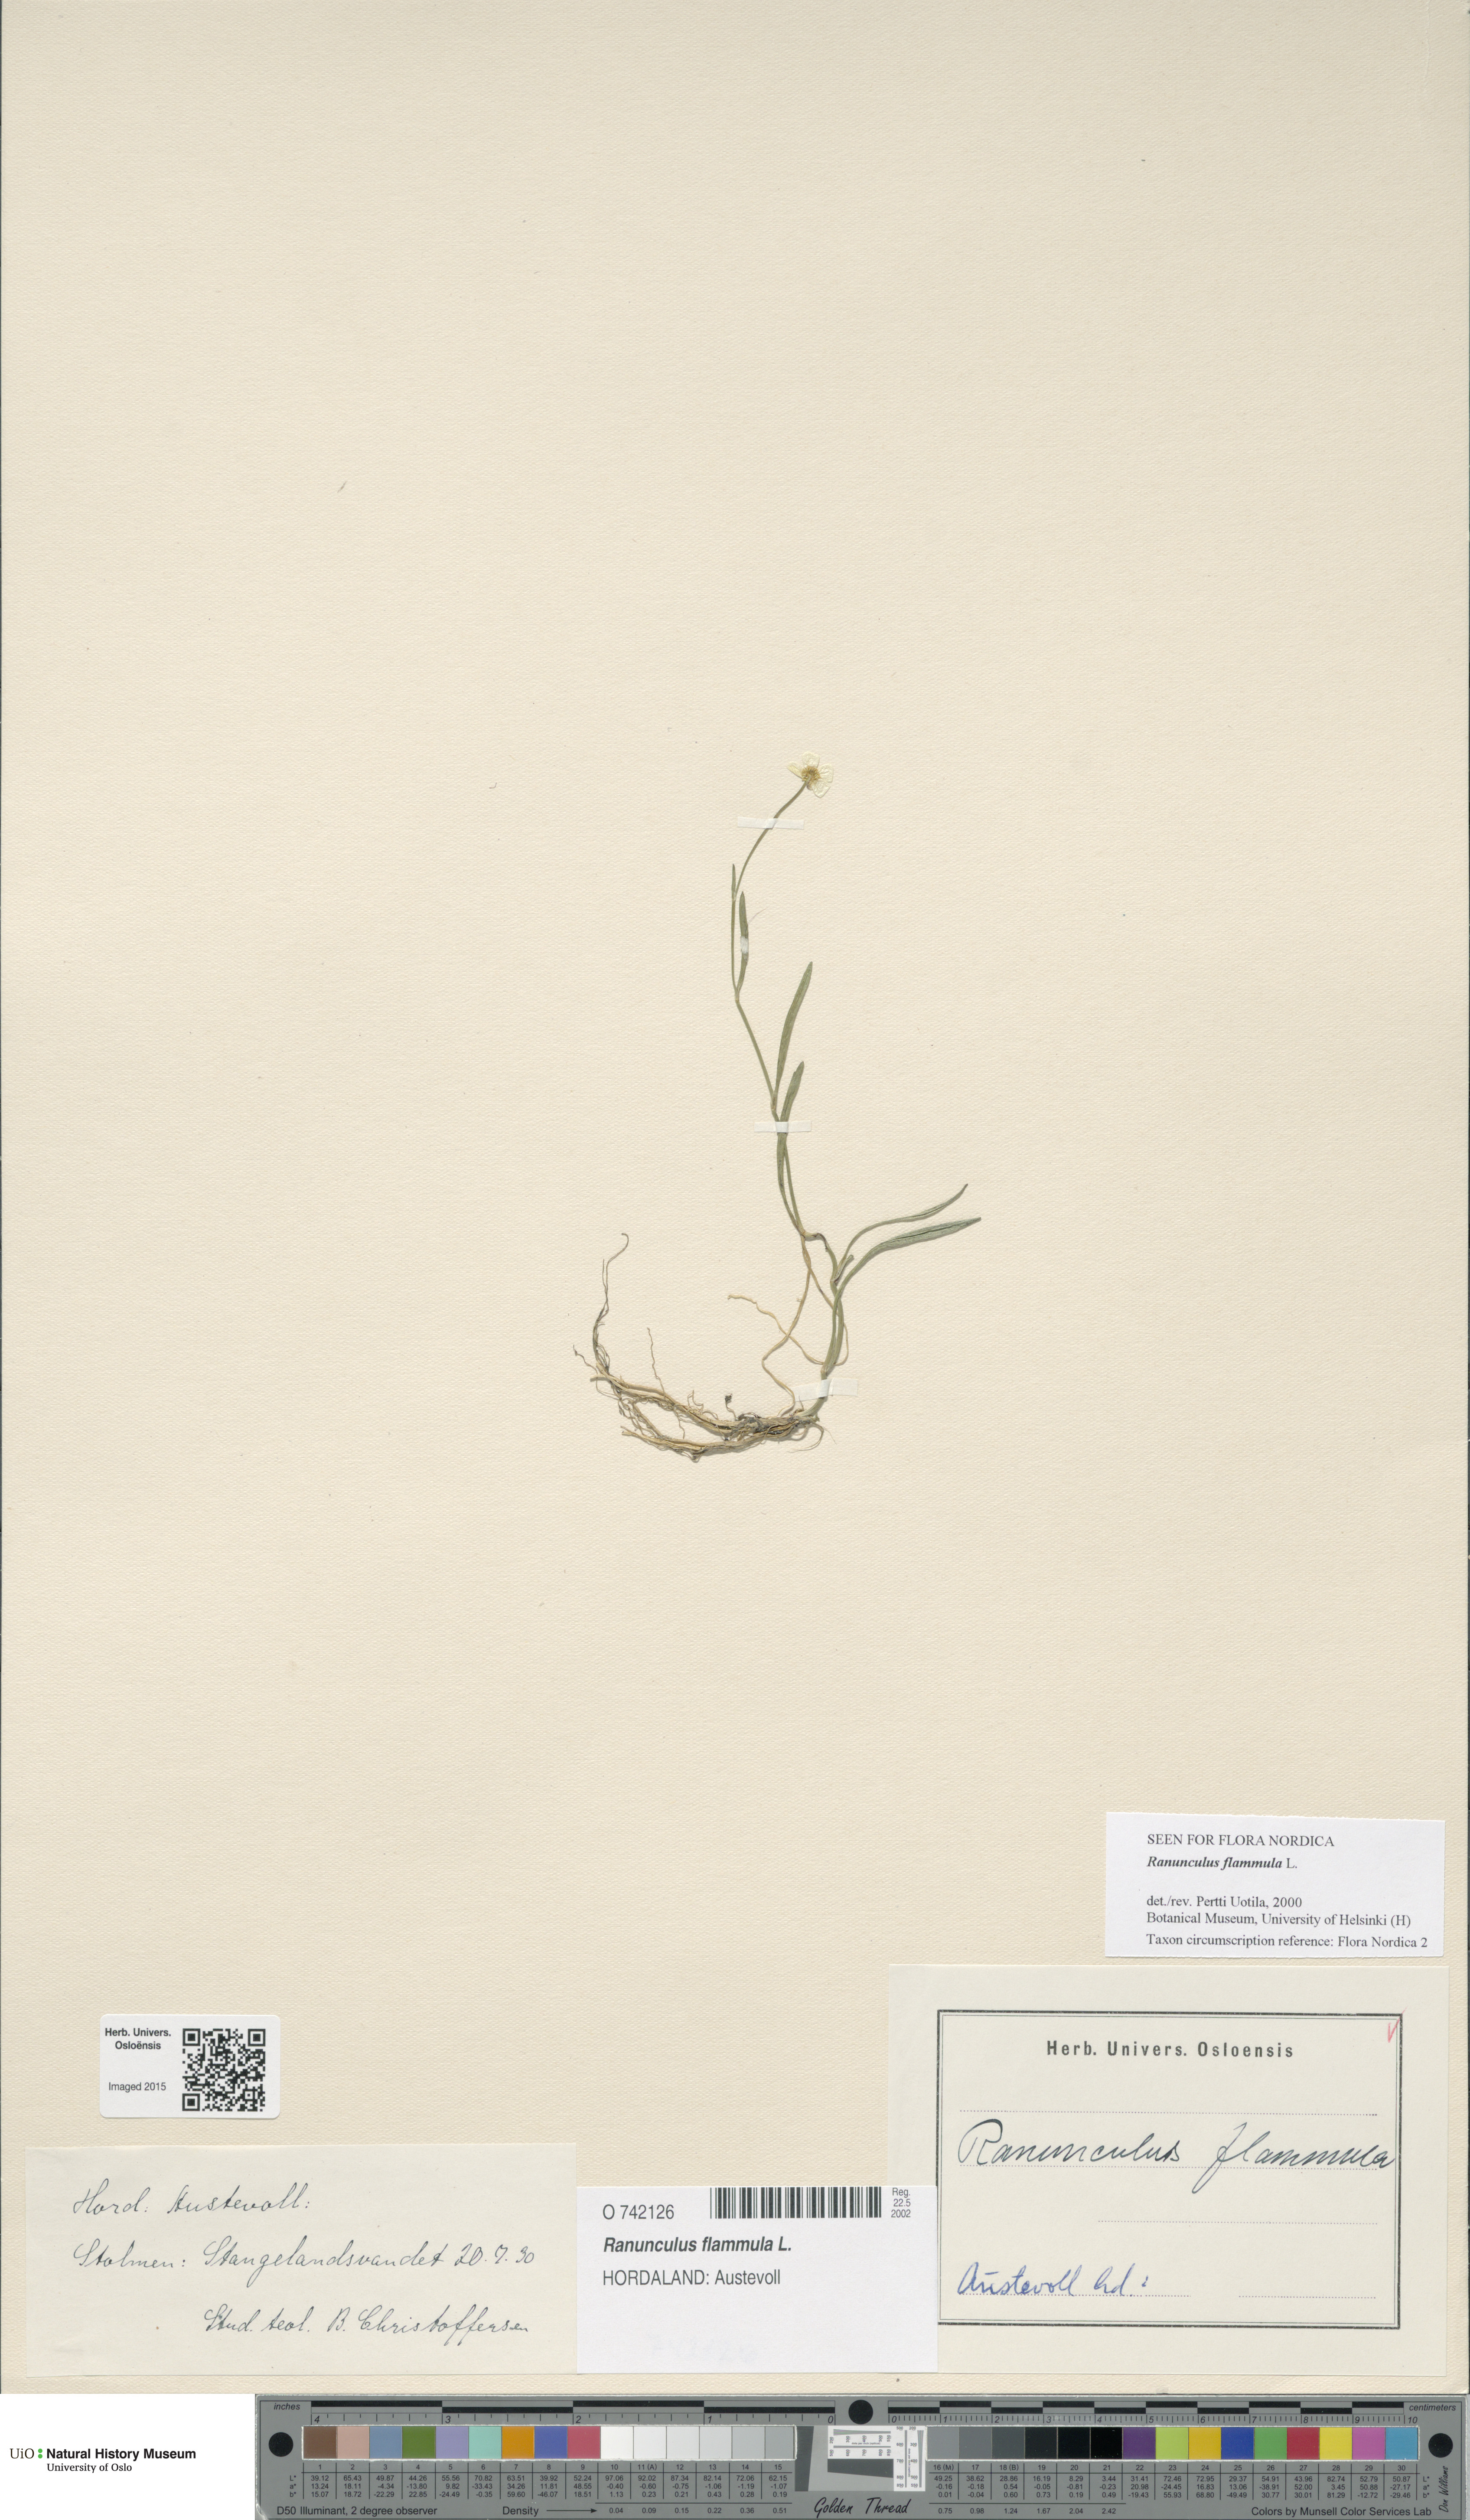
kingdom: Plantae
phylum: Tracheophyta
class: Magnoliopsida
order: Ranunculales
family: Ranunculaceae
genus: Ranunculus
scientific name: Ranunculus flammula
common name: Lesser spearwort
